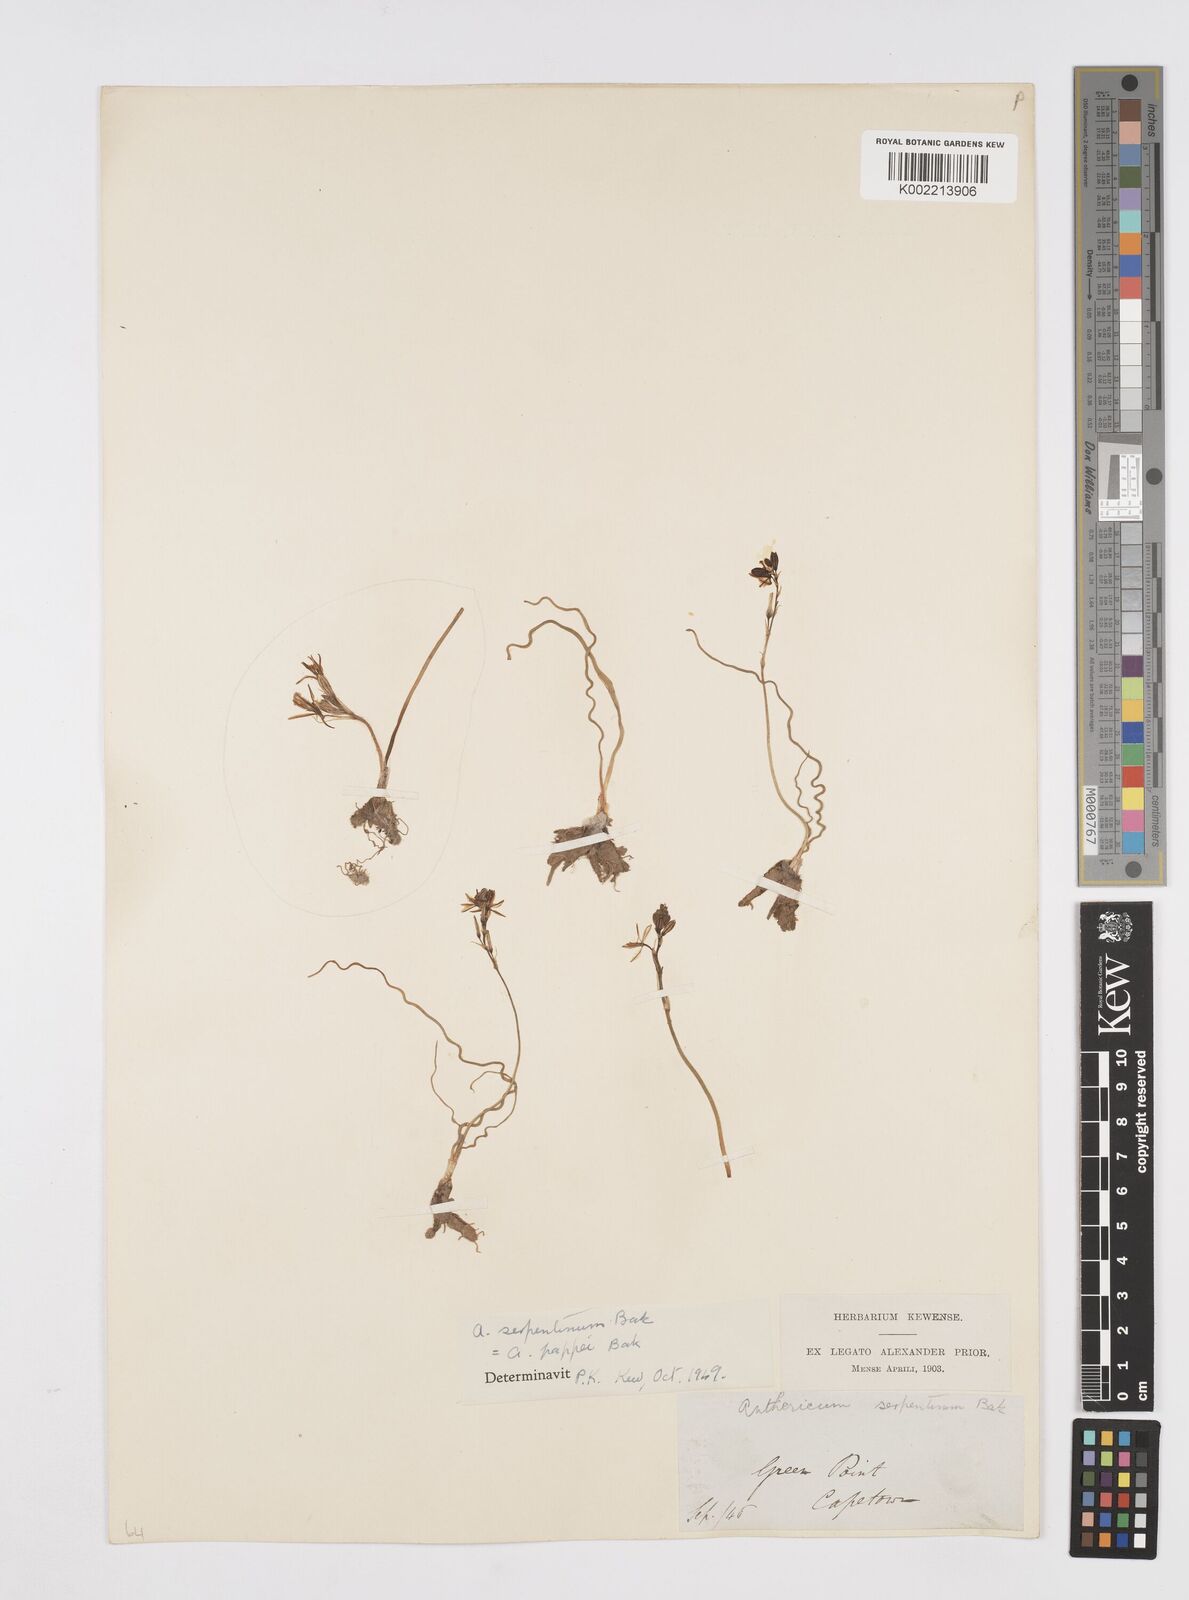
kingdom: Plantae
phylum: Tracheophyta
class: Liliopsida
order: Asparagales
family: Asphodelaceae
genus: Trachyandra
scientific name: Trachyandra flexifolia
